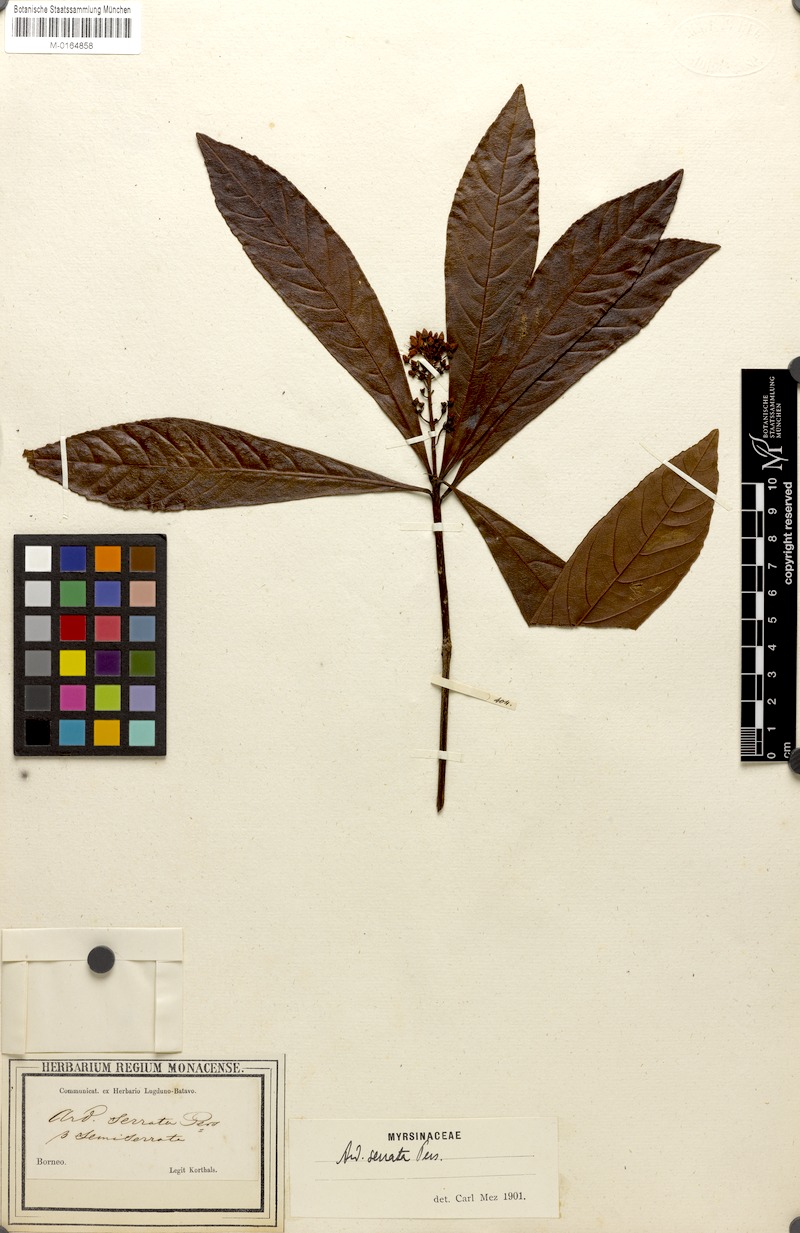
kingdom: Plantae
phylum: Tracheophyta
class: Magnoliopsida
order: Ericales
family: Primulaceae
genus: Ardisia
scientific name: Ardisia serrata
